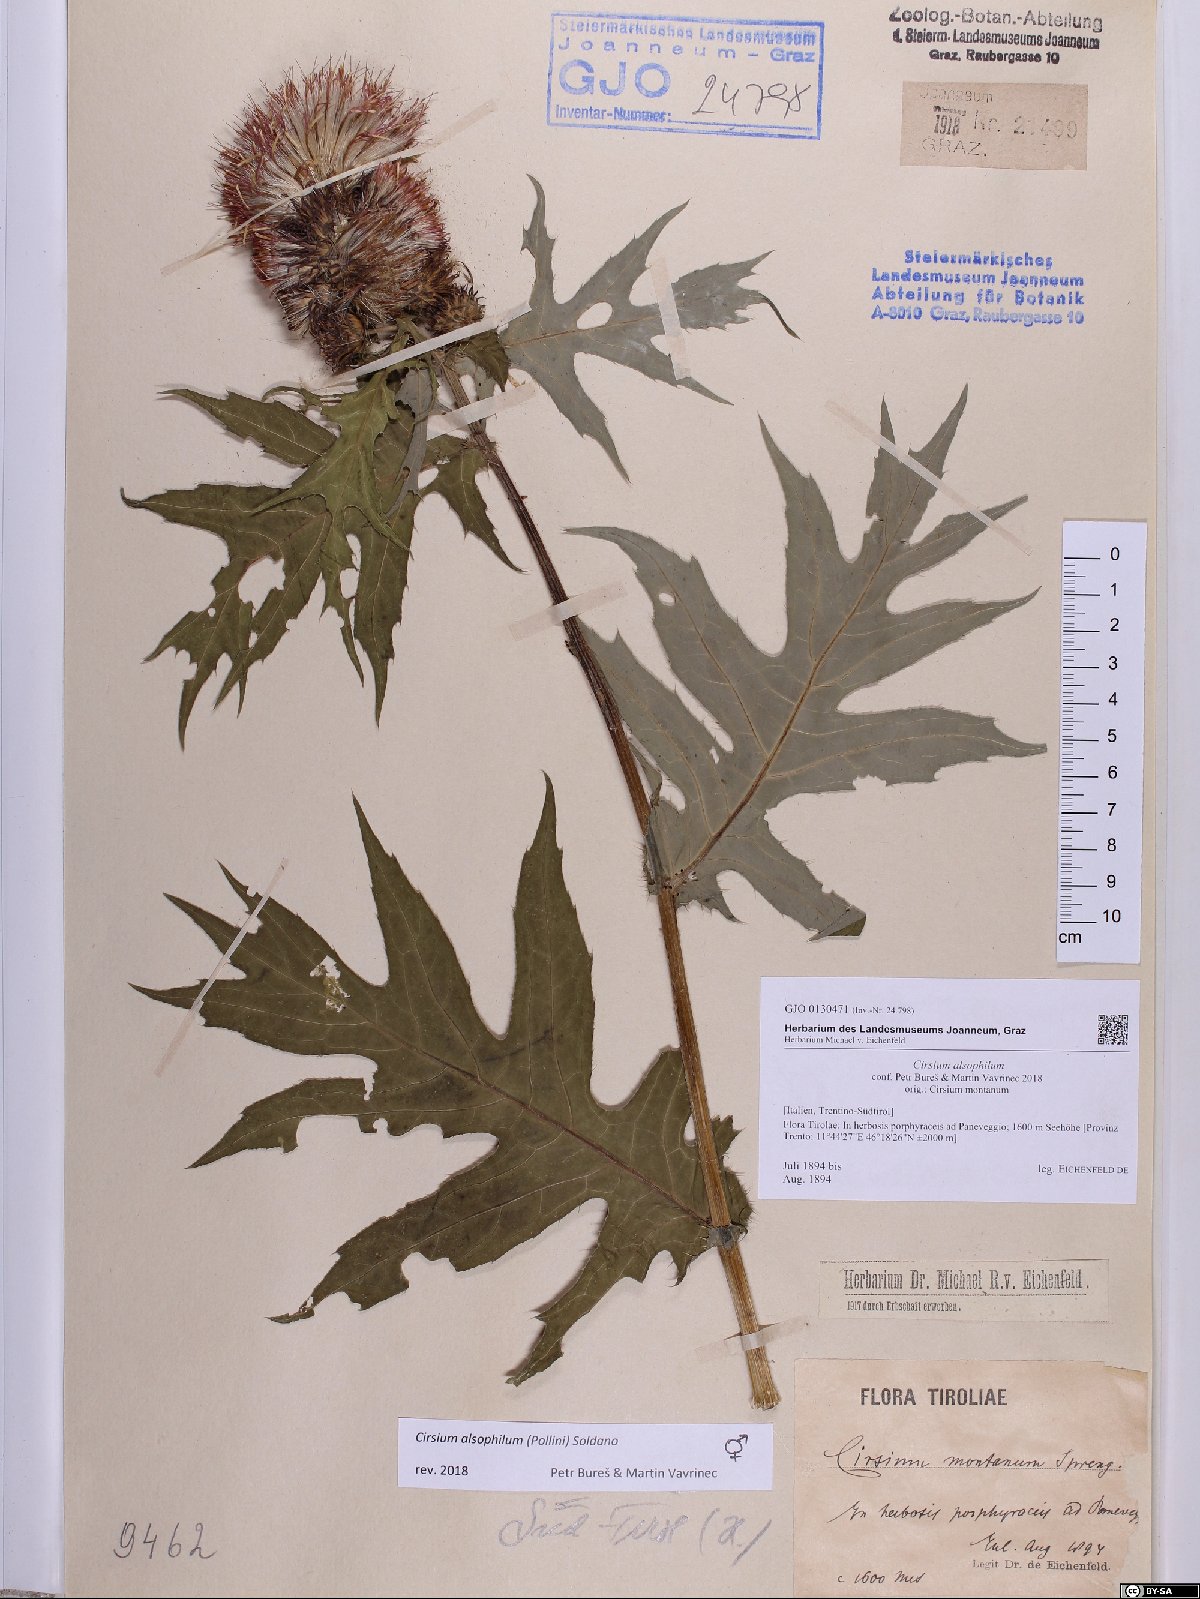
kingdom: Plantae
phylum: Tracheophyta
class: Magnoliopsida
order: Asterales
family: Asteraceae
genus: Cirsium
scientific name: Cirsium alsophilum
